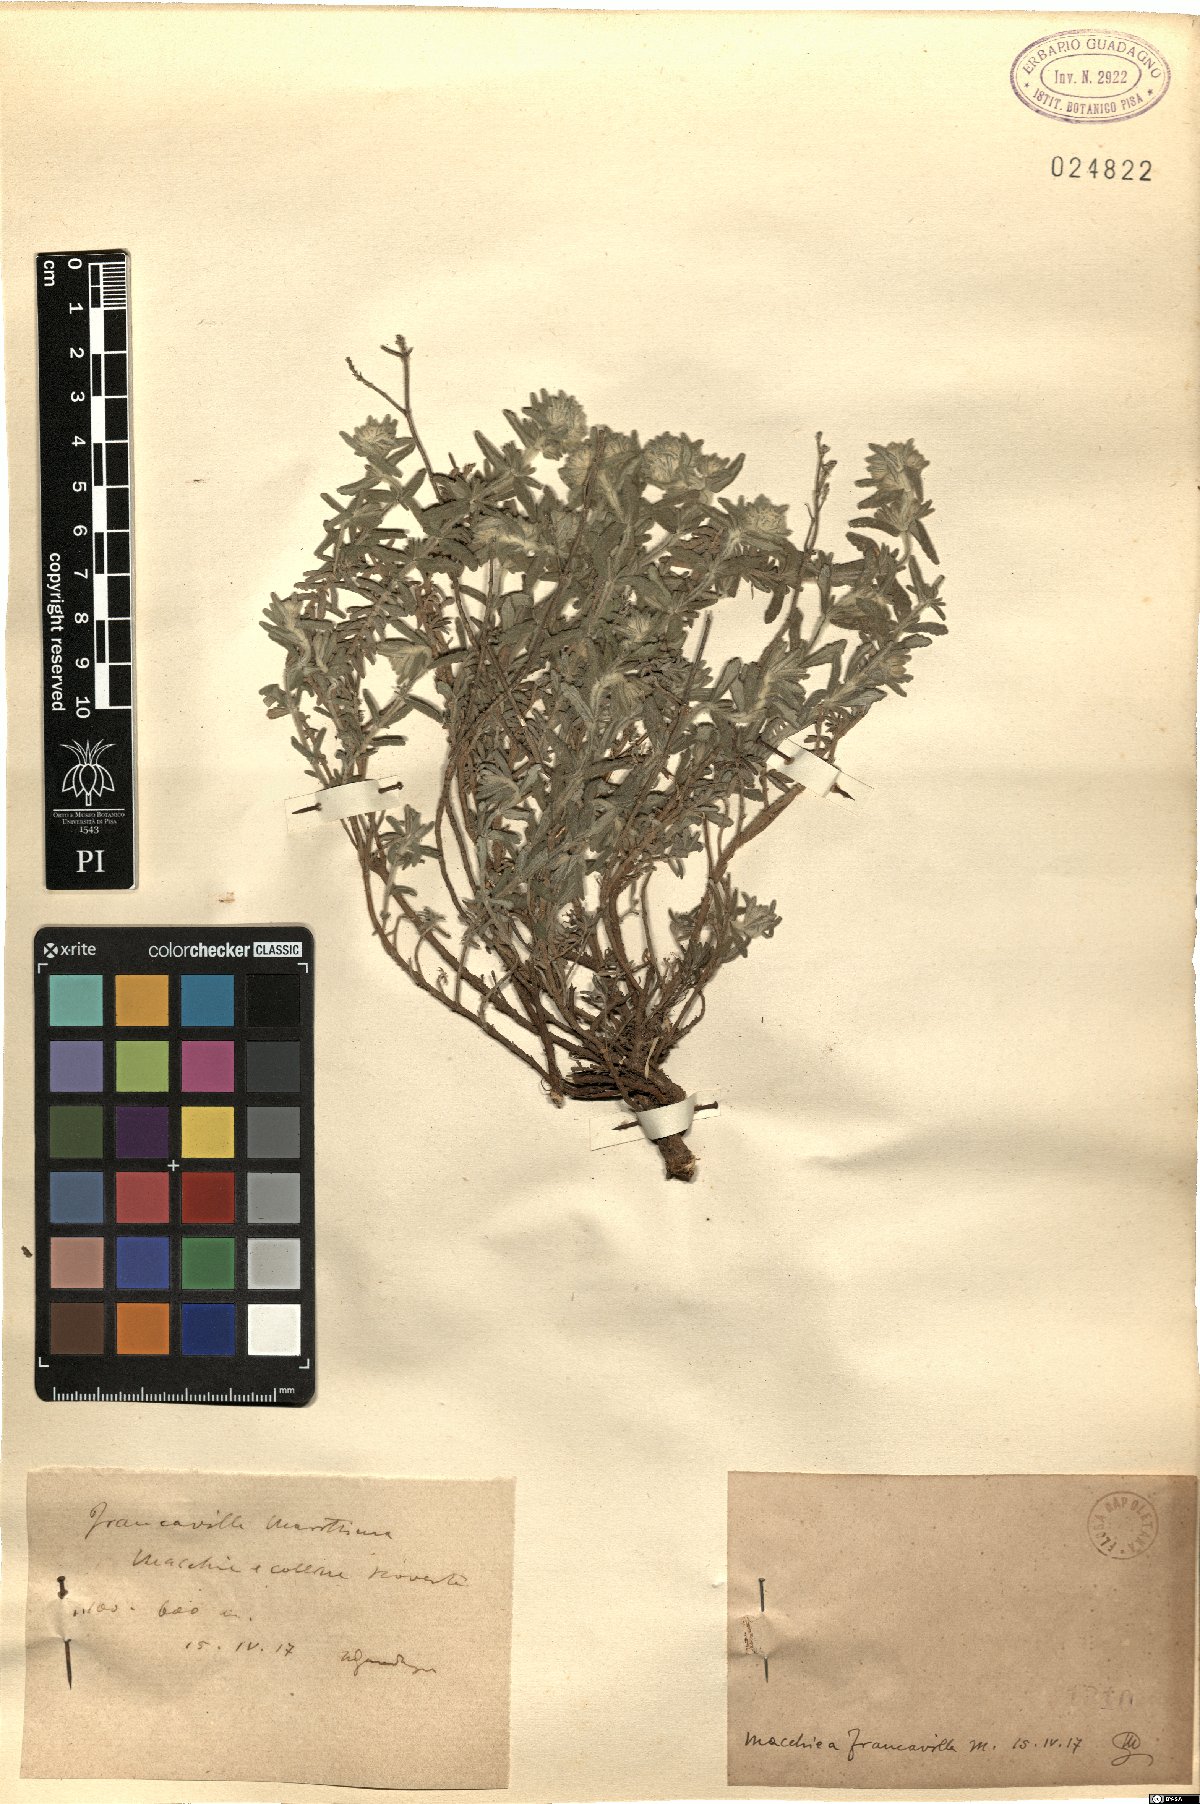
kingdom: Plantae
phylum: Tracheophyta
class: Magnoliopsida
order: Lamiales
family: Lamiaceae
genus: Teucrium
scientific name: Teucrium
